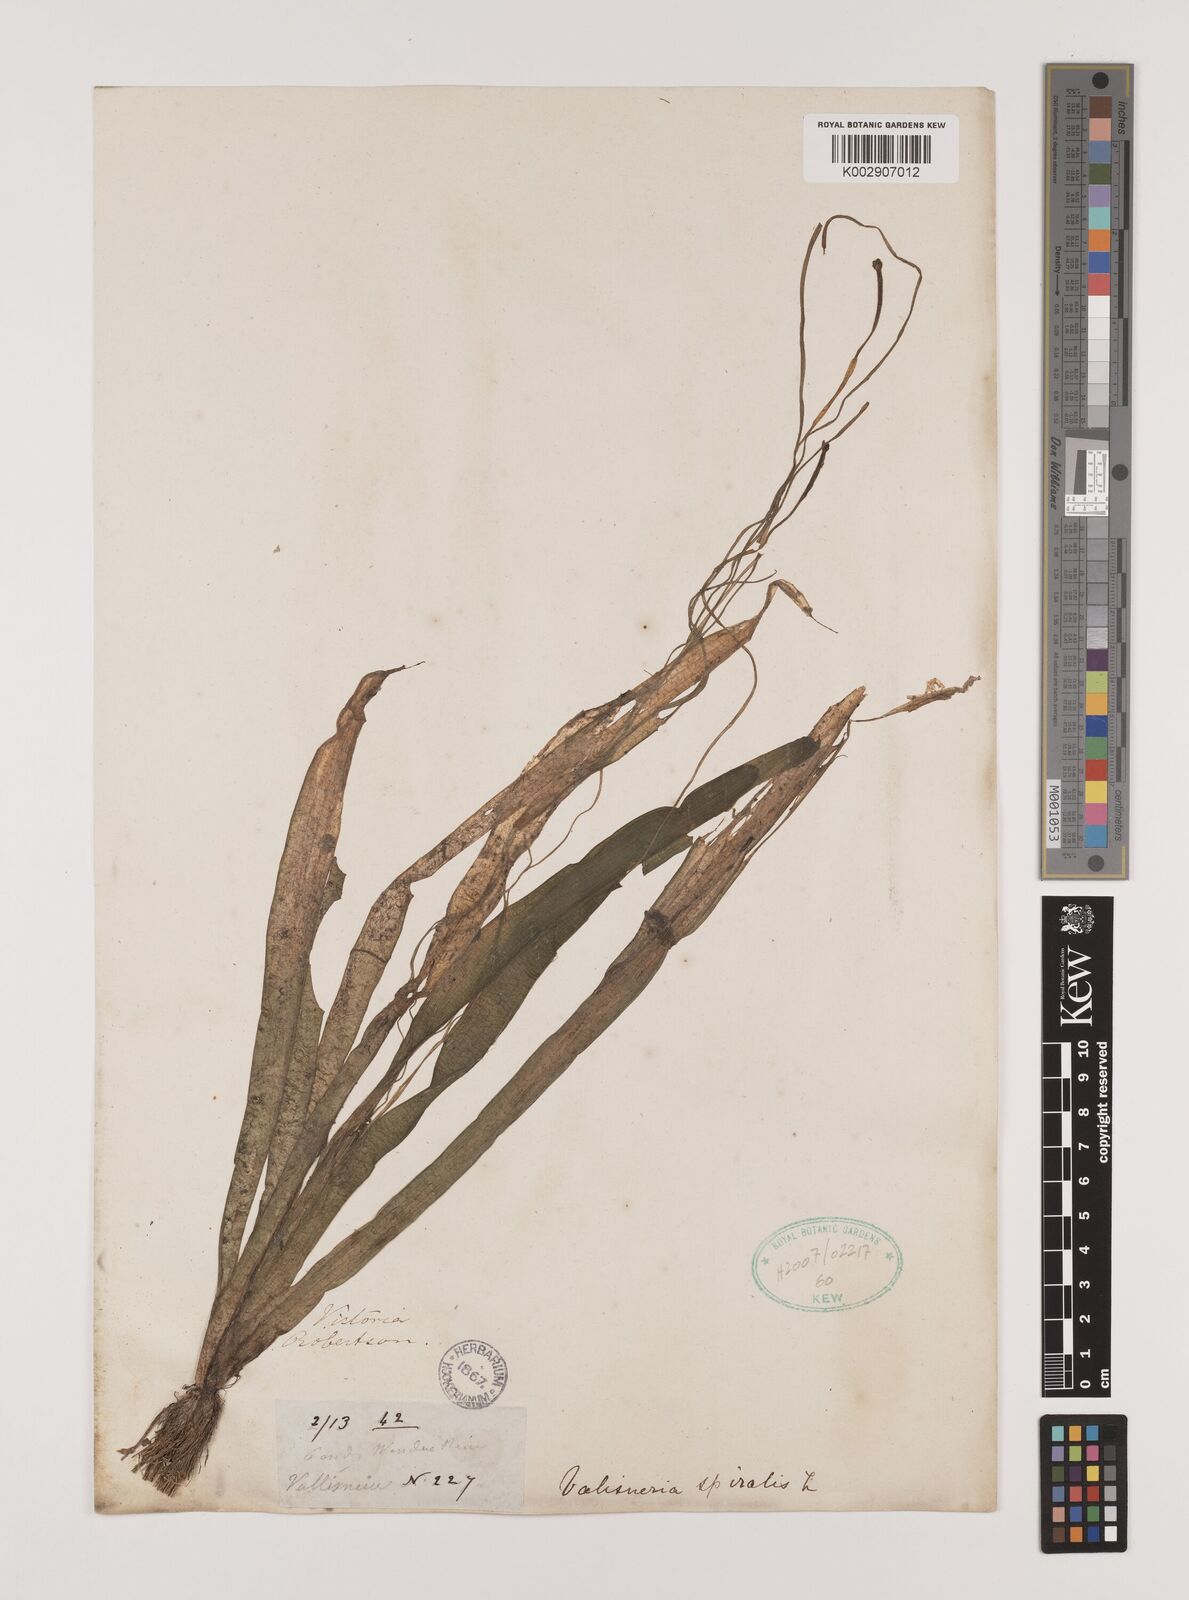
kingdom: Plantae
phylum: Tracheophyta
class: Liliopsida
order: Alismatales
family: Hydrocharitaceae
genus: Vallisneria
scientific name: Vallisneria spiralis
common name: Tapegrass
